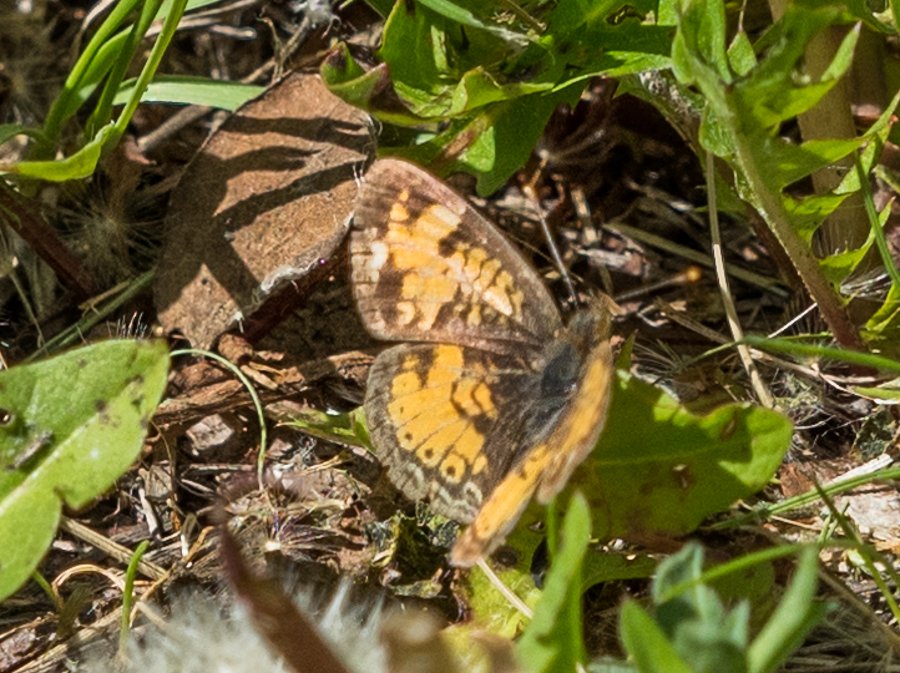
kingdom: Animalia
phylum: Arthropoda
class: Insecta
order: Lepidoptera
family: Nymphalidae
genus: Phyciodes
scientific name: Phyciodes tharos
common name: Northern Crescent
